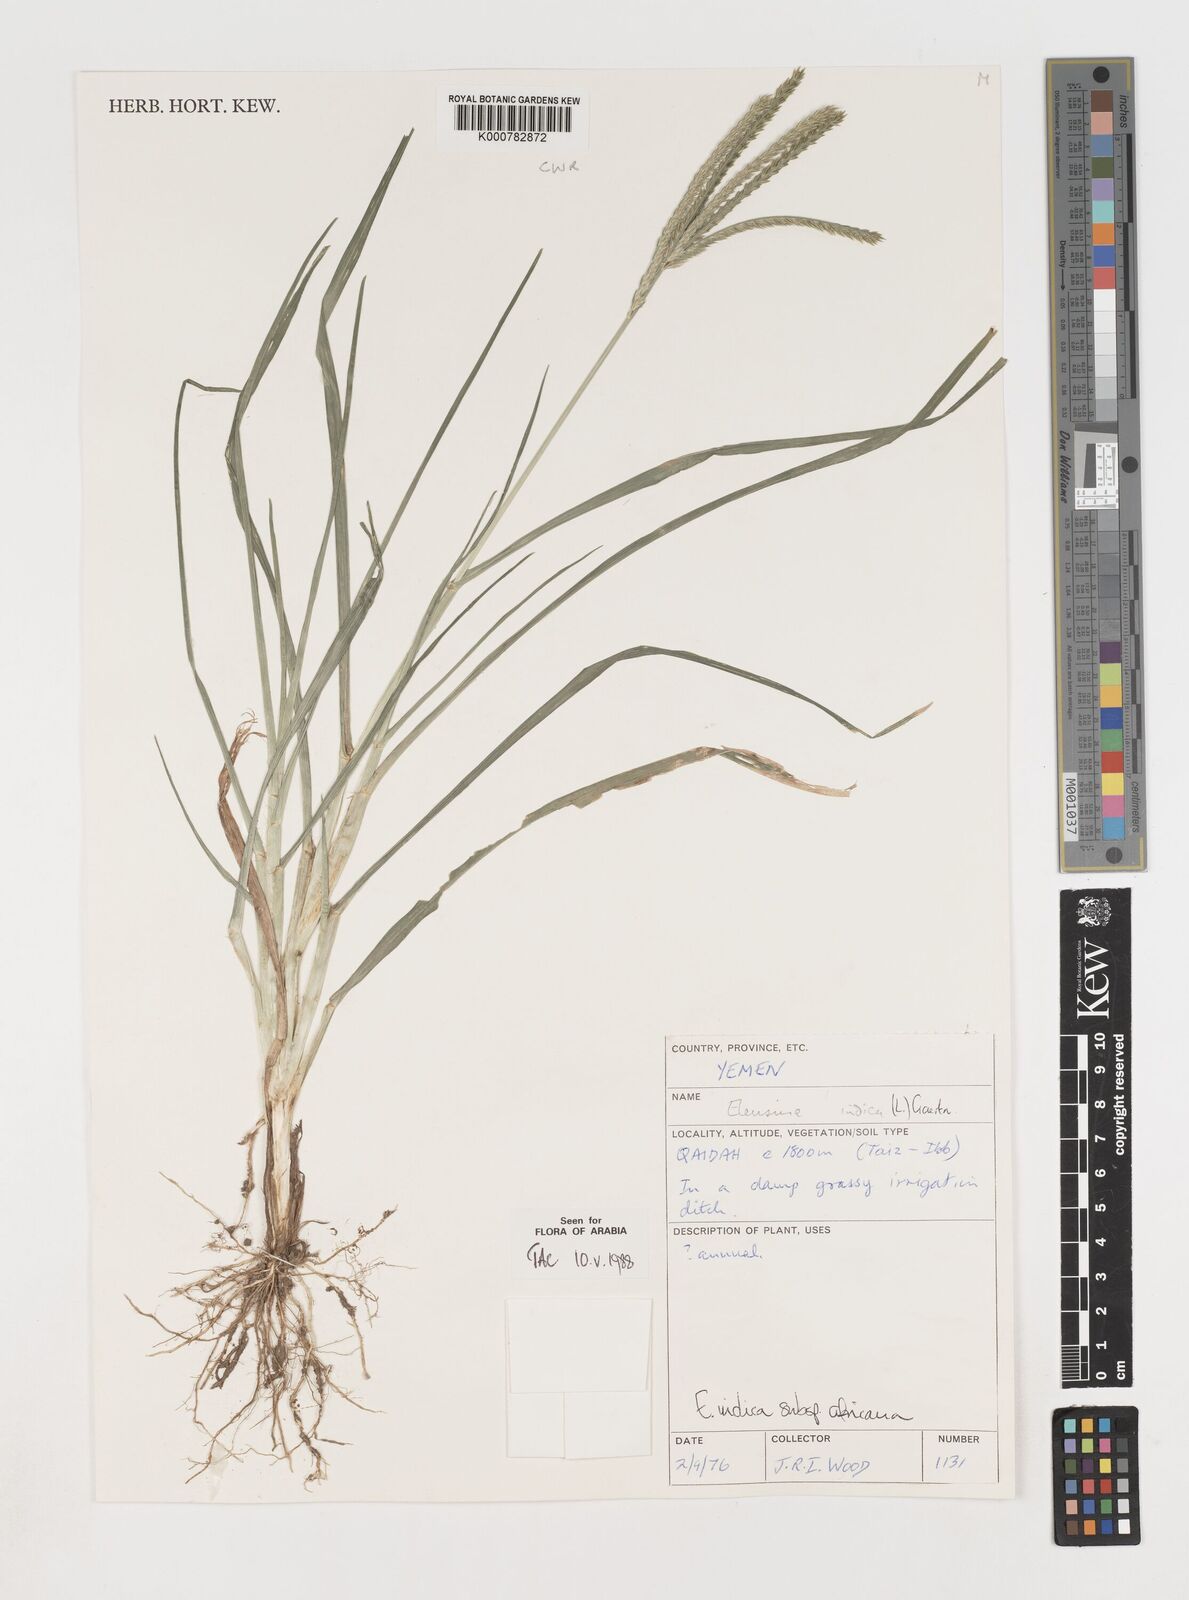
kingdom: Plantae
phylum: Tracheophyta
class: Liliopsida
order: Poales
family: Poaceae
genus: Eleusine
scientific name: Eleusine africana
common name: Wild african finger millet
